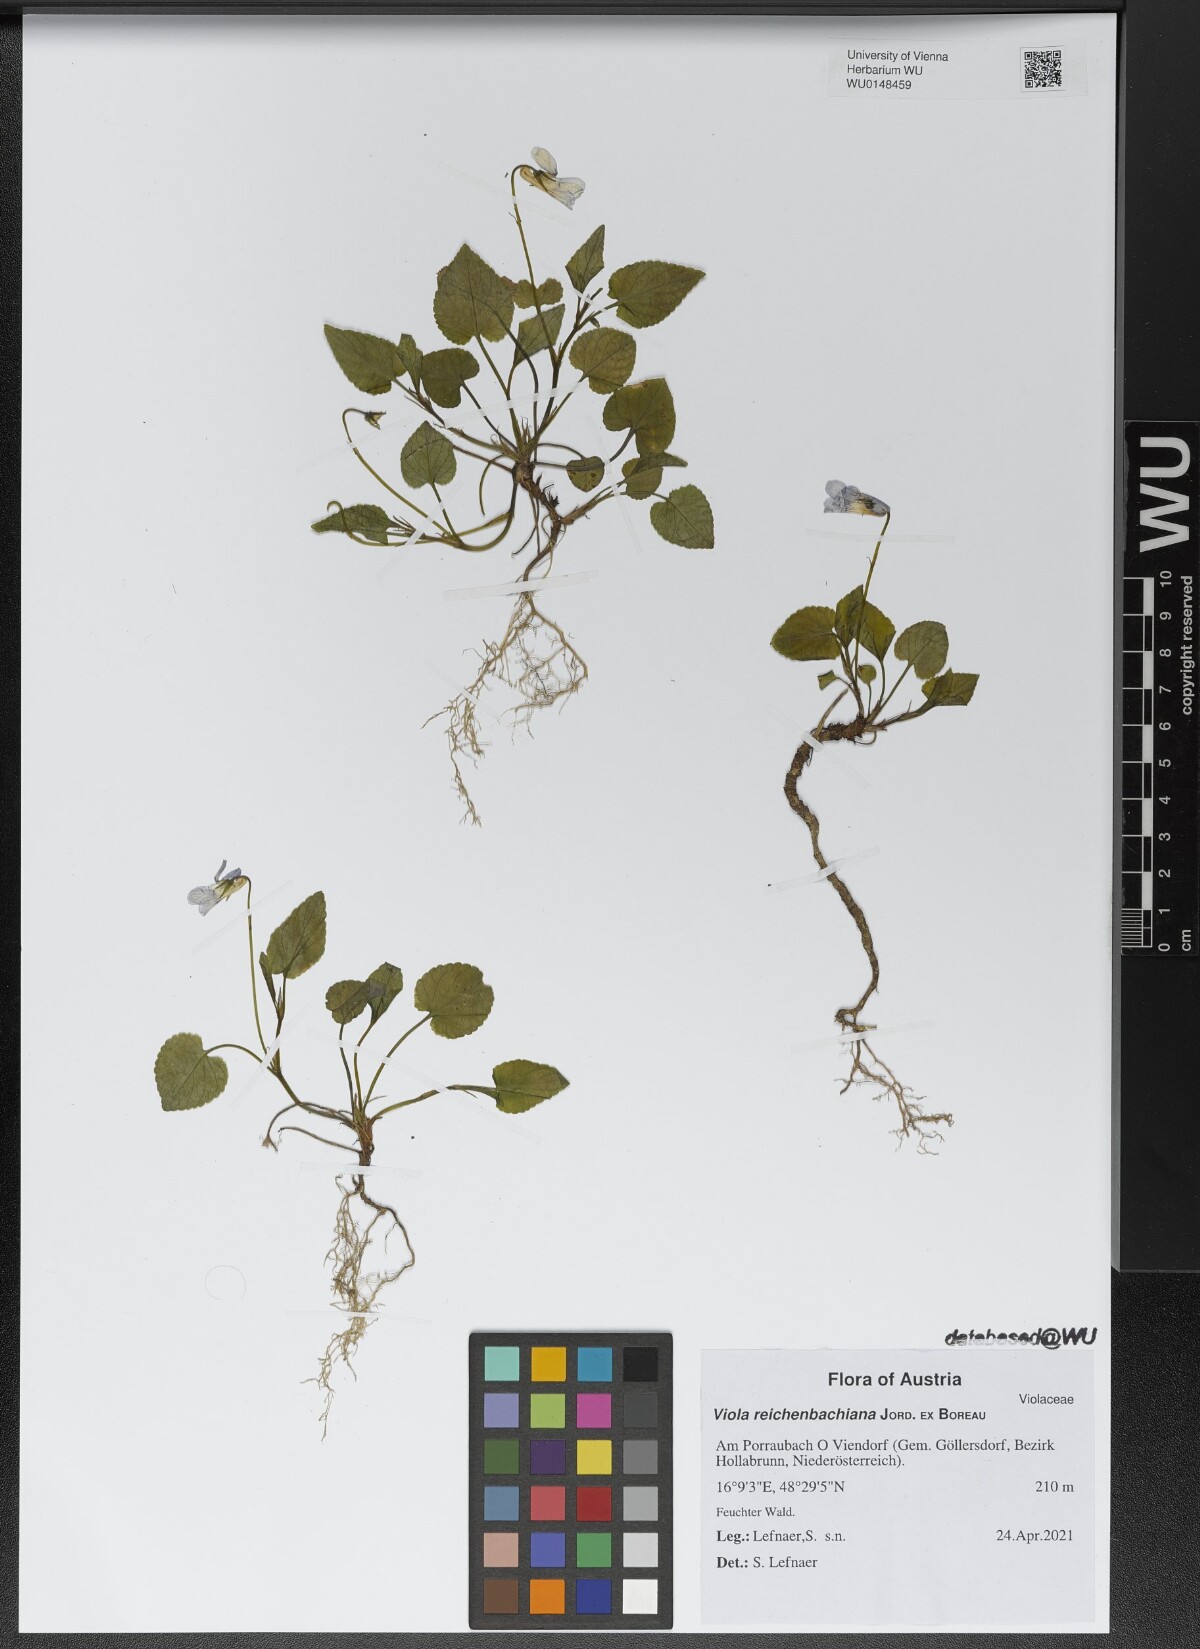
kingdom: Plantae
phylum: Tracheophyta
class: Magnoliopsida
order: Malpighiales
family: Violaceae
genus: Viola
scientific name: Viola reichenbachiana
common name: Early dog-violet
